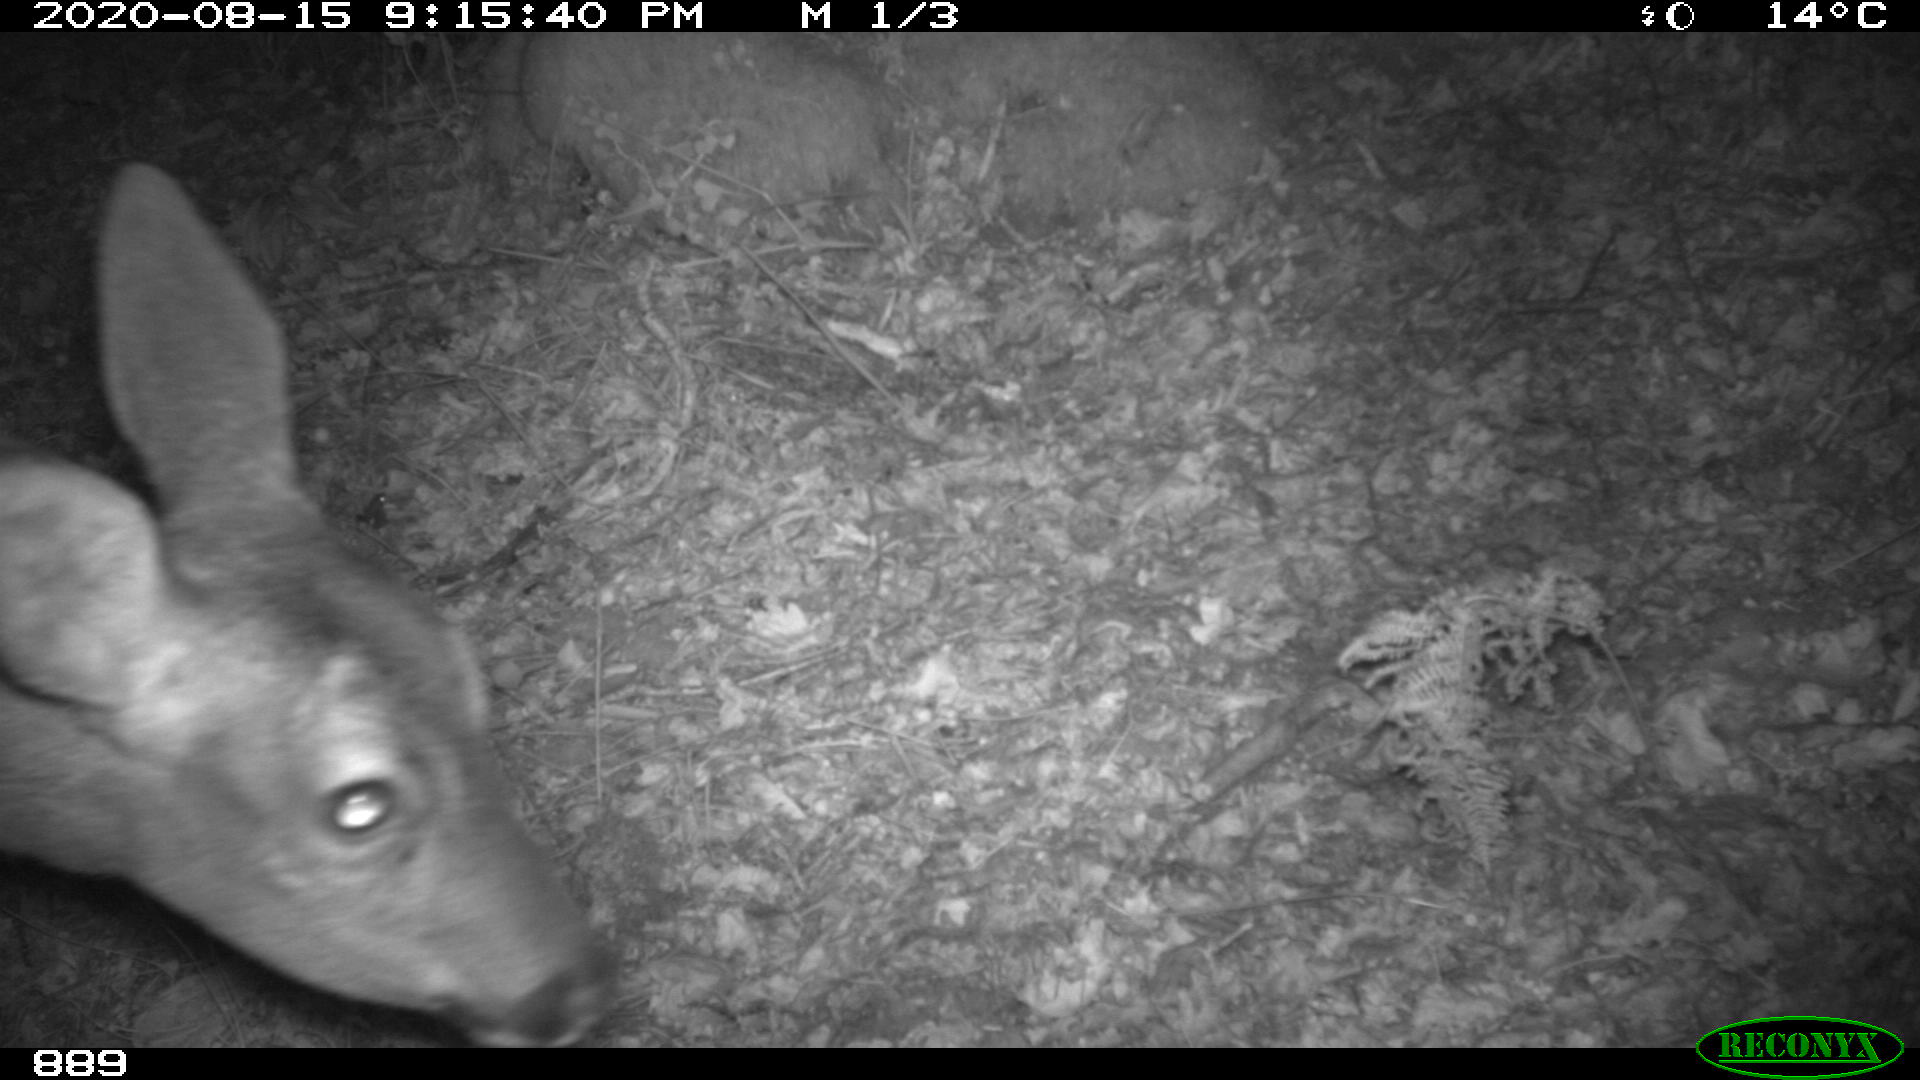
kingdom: Animalia
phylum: Chordata
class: Mammalia
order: Artiodactyla
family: Cervidae
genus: Capreolus
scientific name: Capreolus capreolus
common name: Western roe deer
